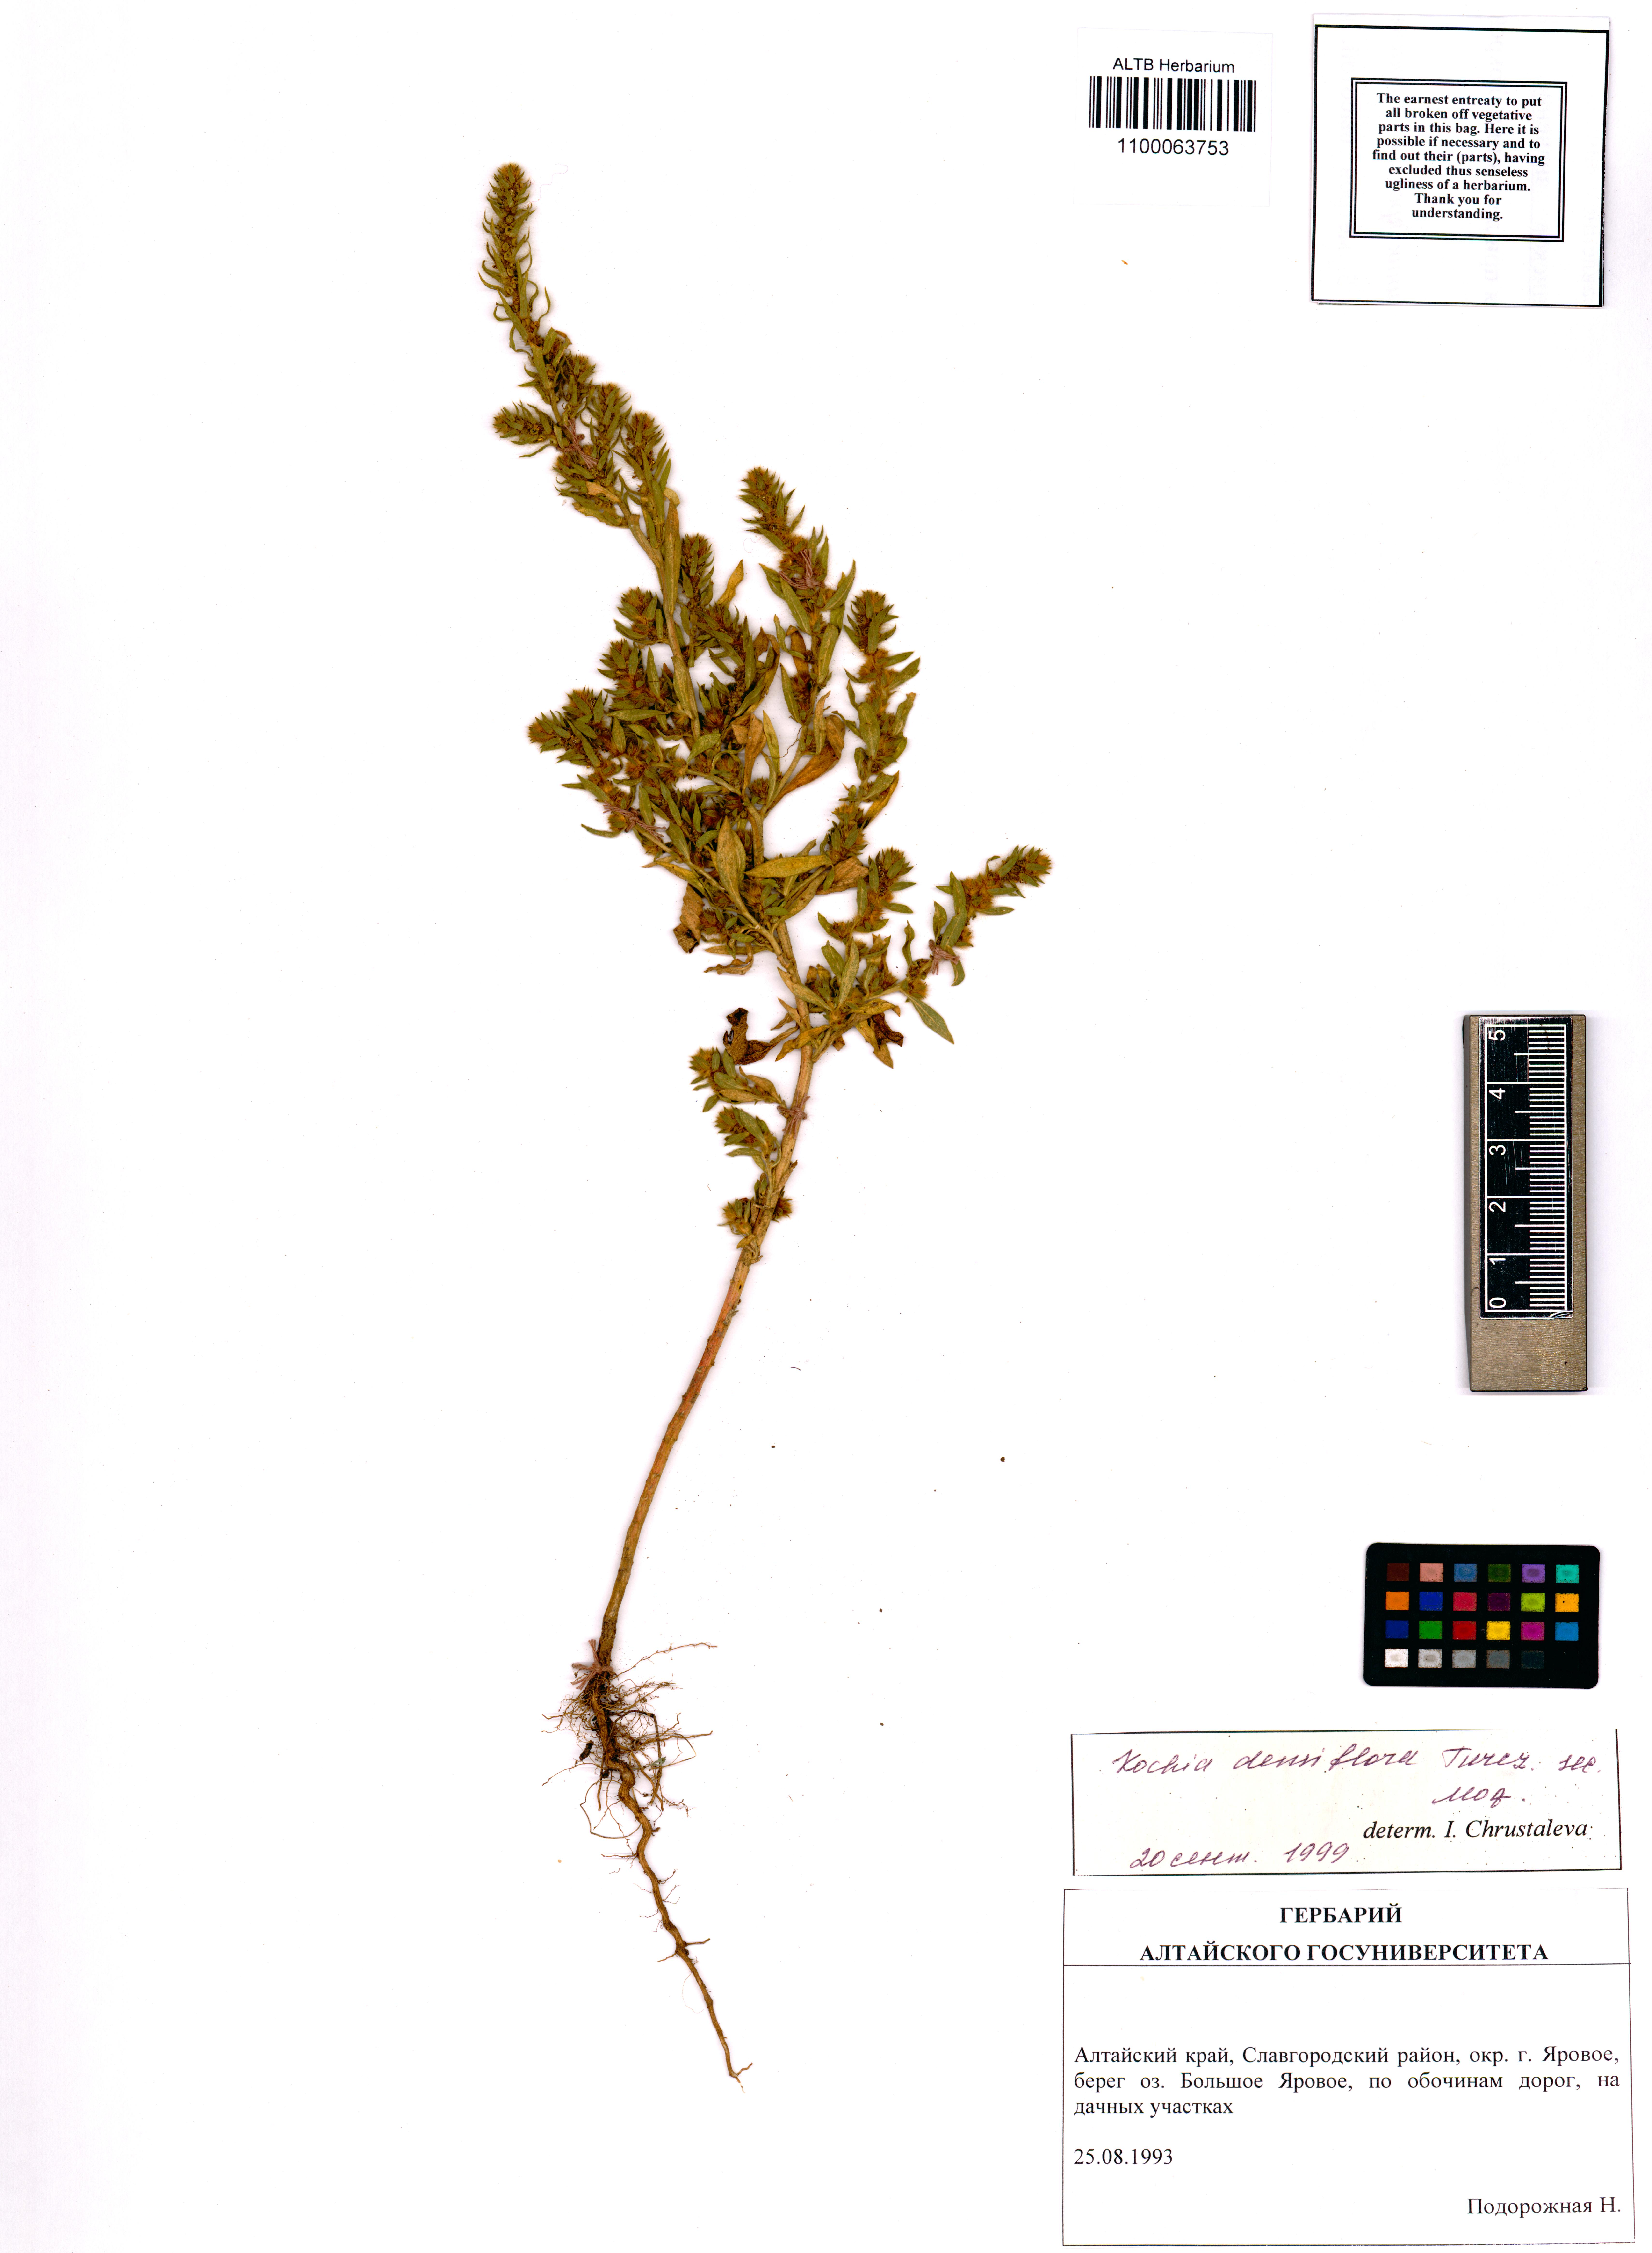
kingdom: Plantae
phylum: Tracheophyta
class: Magnoliopsida
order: Caryophyllales
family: Amaranthaceae
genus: Bassia
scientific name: Bassia scoparia
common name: Belvedere
